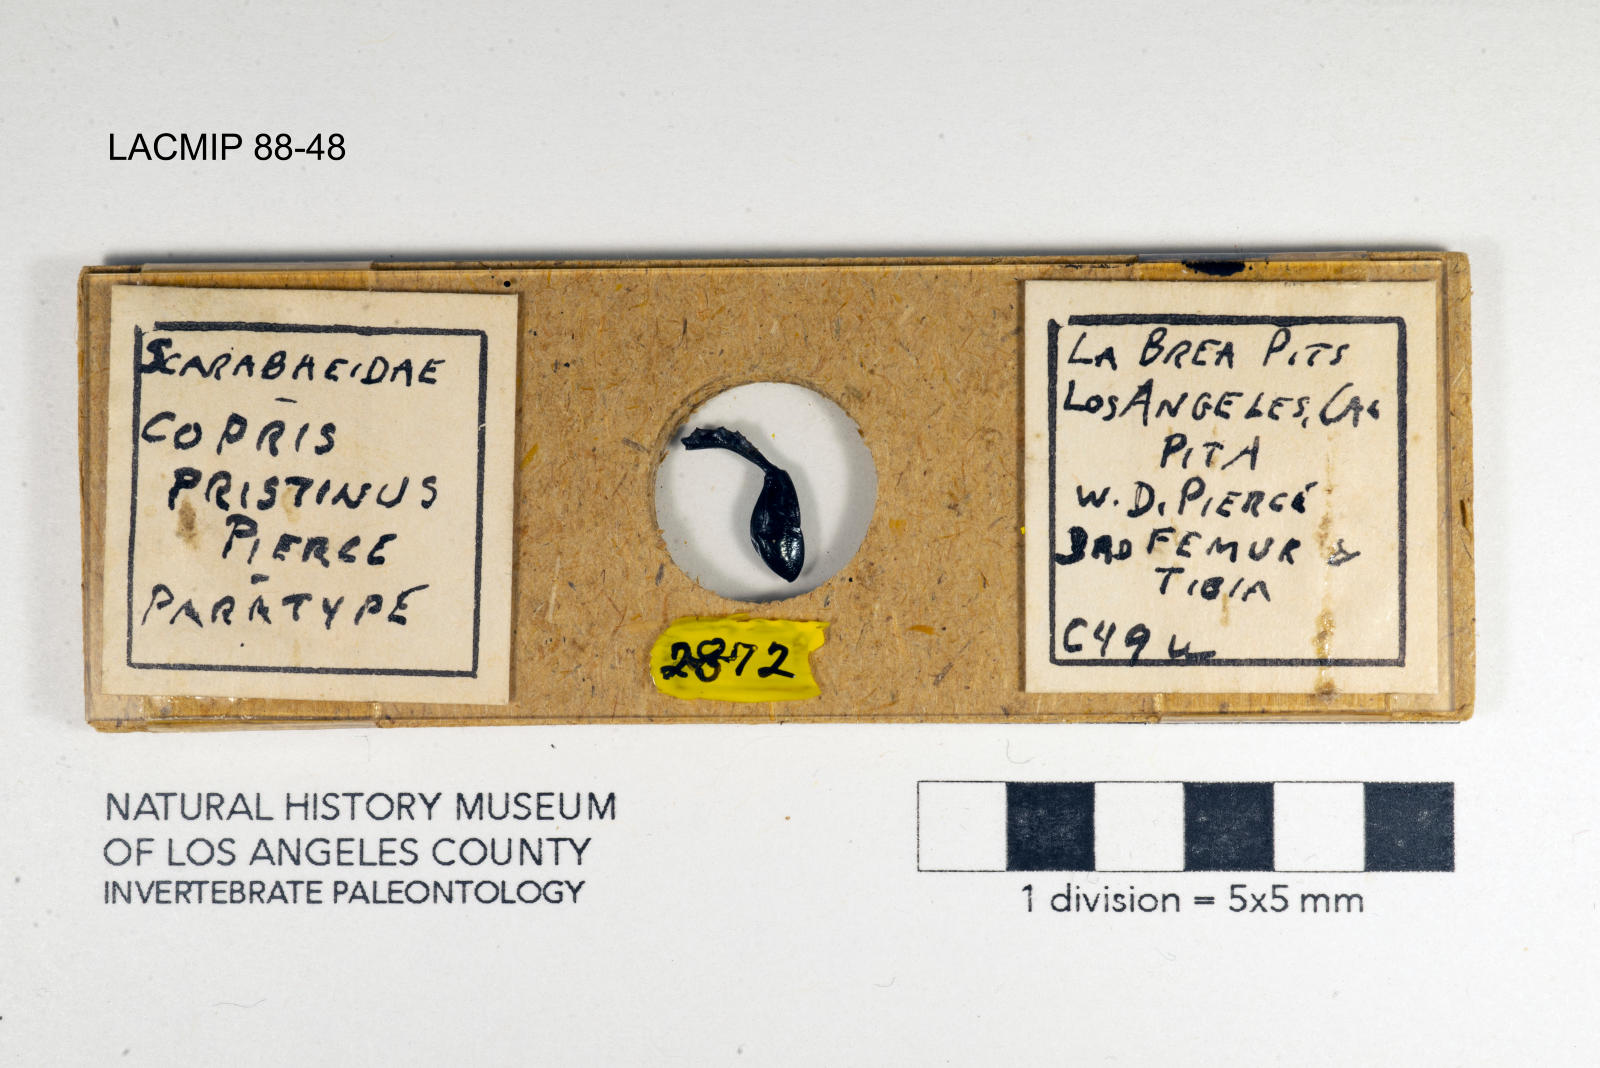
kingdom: Animalia
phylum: Arthropoda
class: Insecta
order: Coleoptera
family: Scarabaeidae
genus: Copris
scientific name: Copris pristinus
